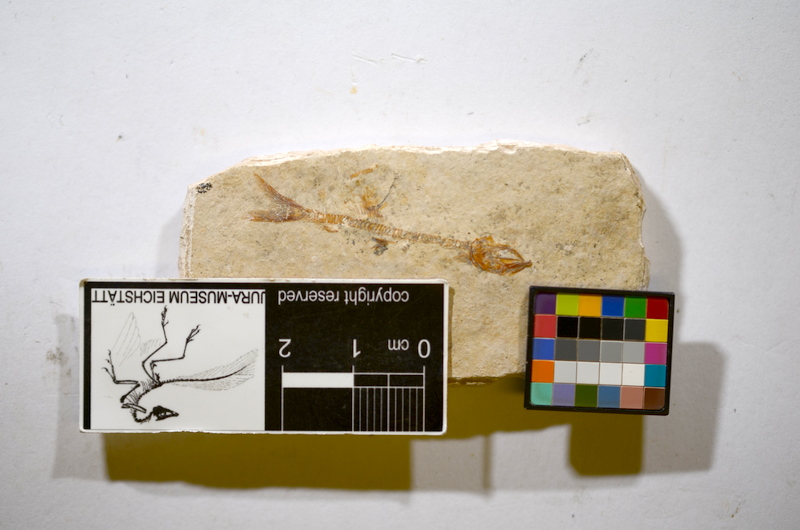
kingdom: Animalia
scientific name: Animalia
